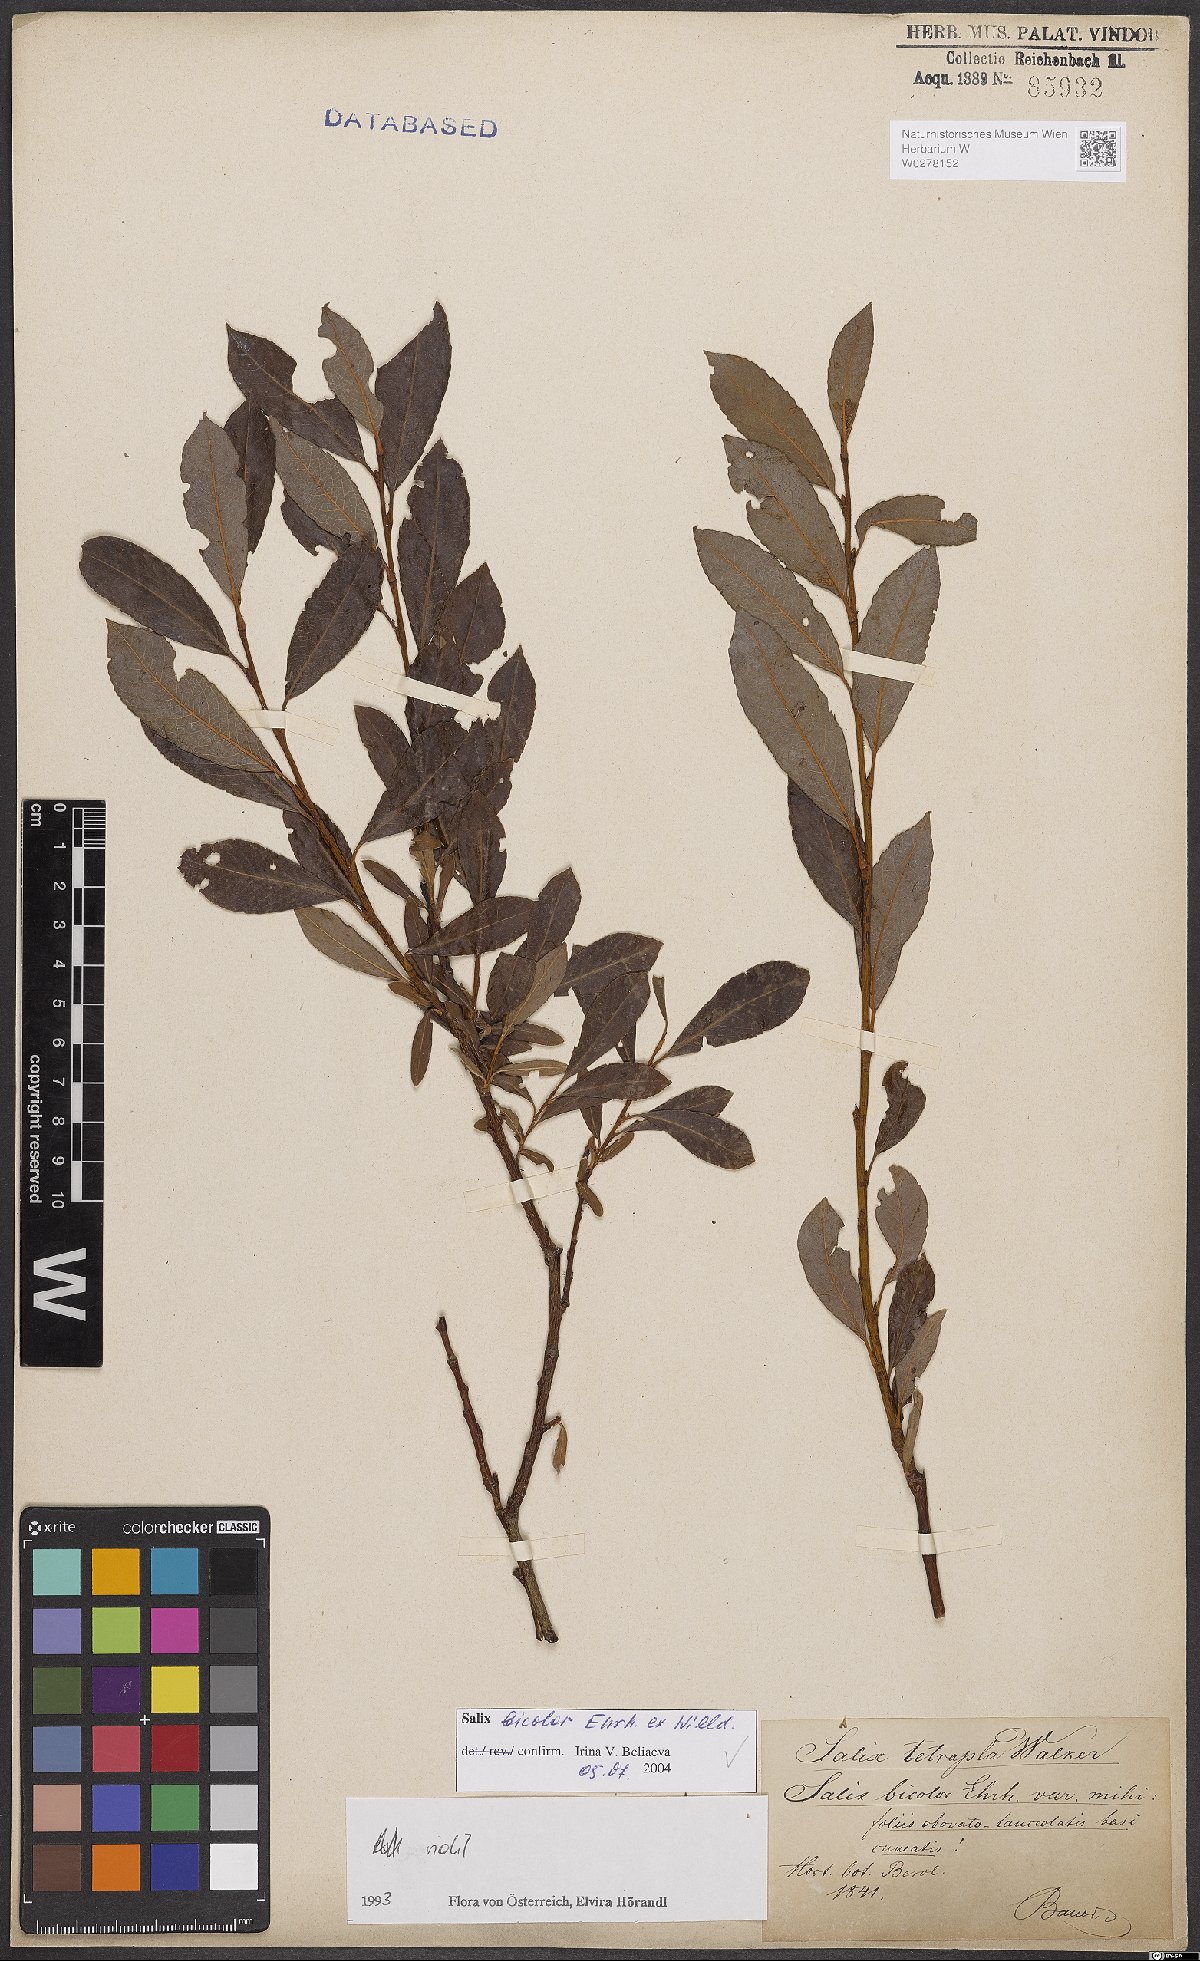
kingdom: Plantae
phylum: Tracheophyta
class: Magnoliopsida
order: Malpighiales
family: Salicaceae
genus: Salix
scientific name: Salix bicolor
